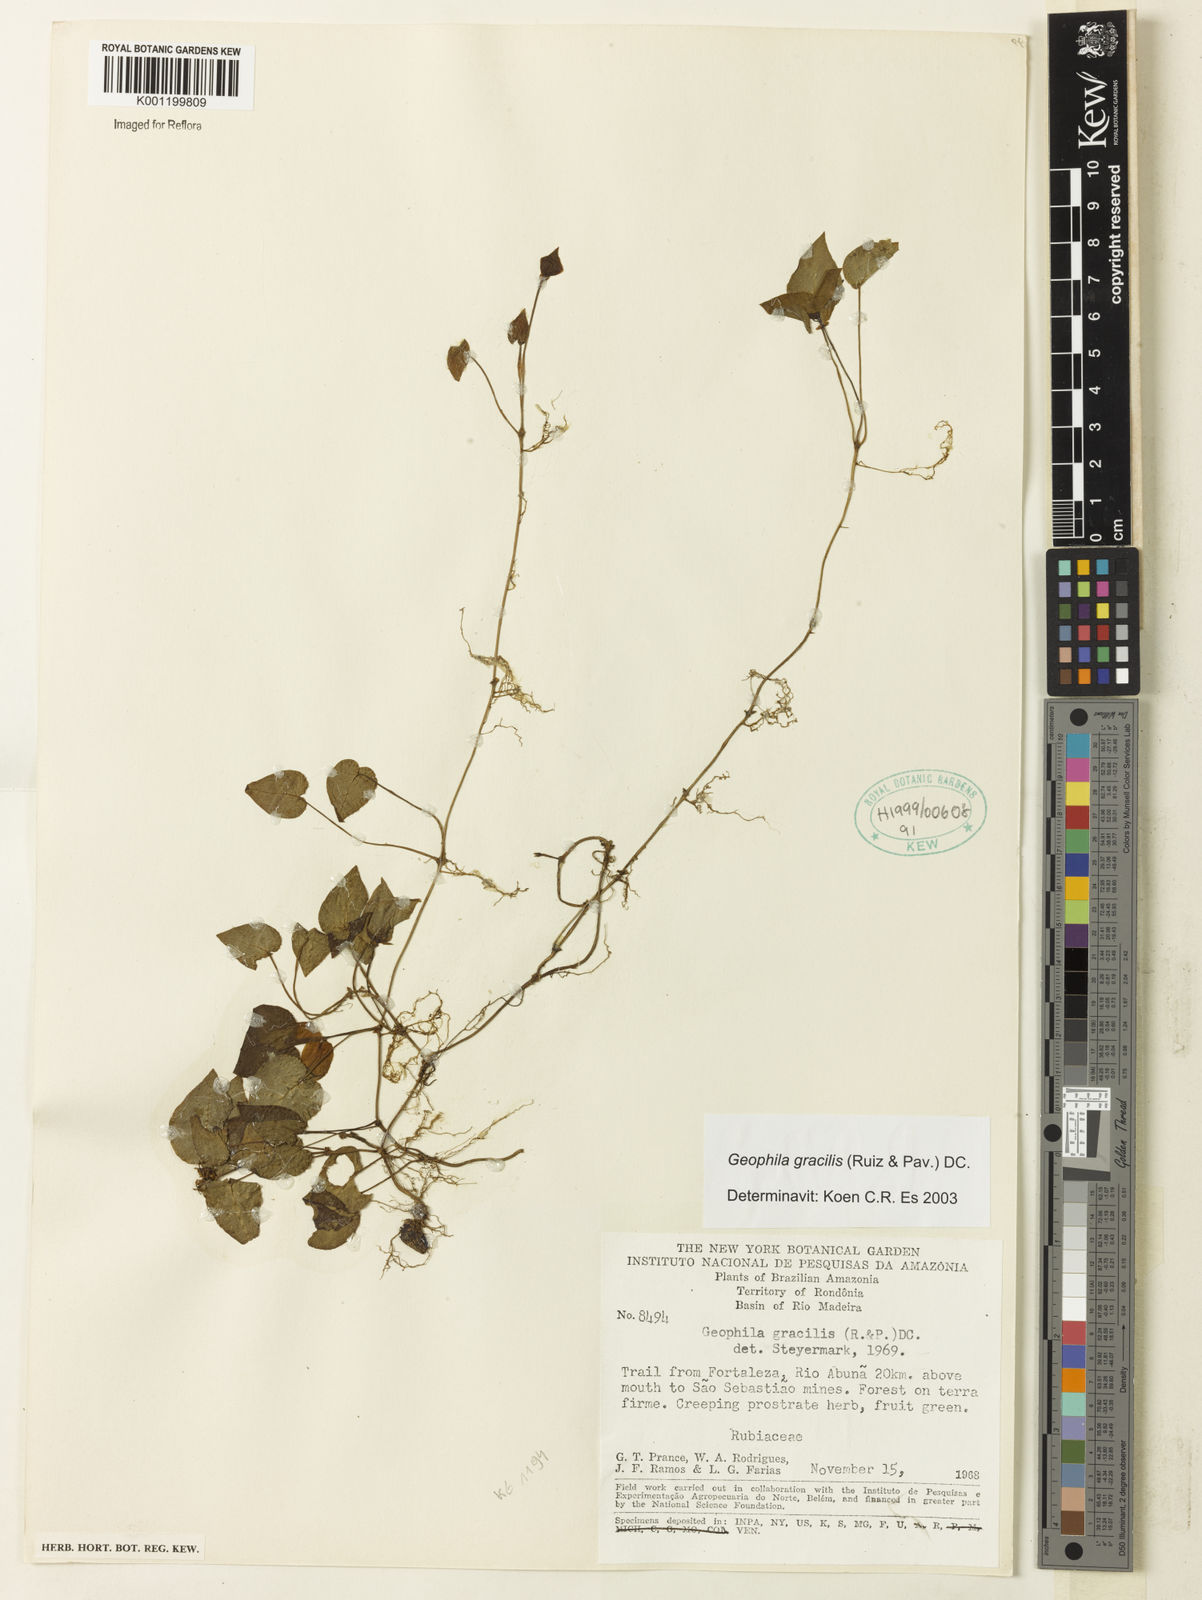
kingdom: Plantae
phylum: Tracheophyta
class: Magnoliopsida
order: Gentianales
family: Rubiaceae
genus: Geophila
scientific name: Geophila gracilis
